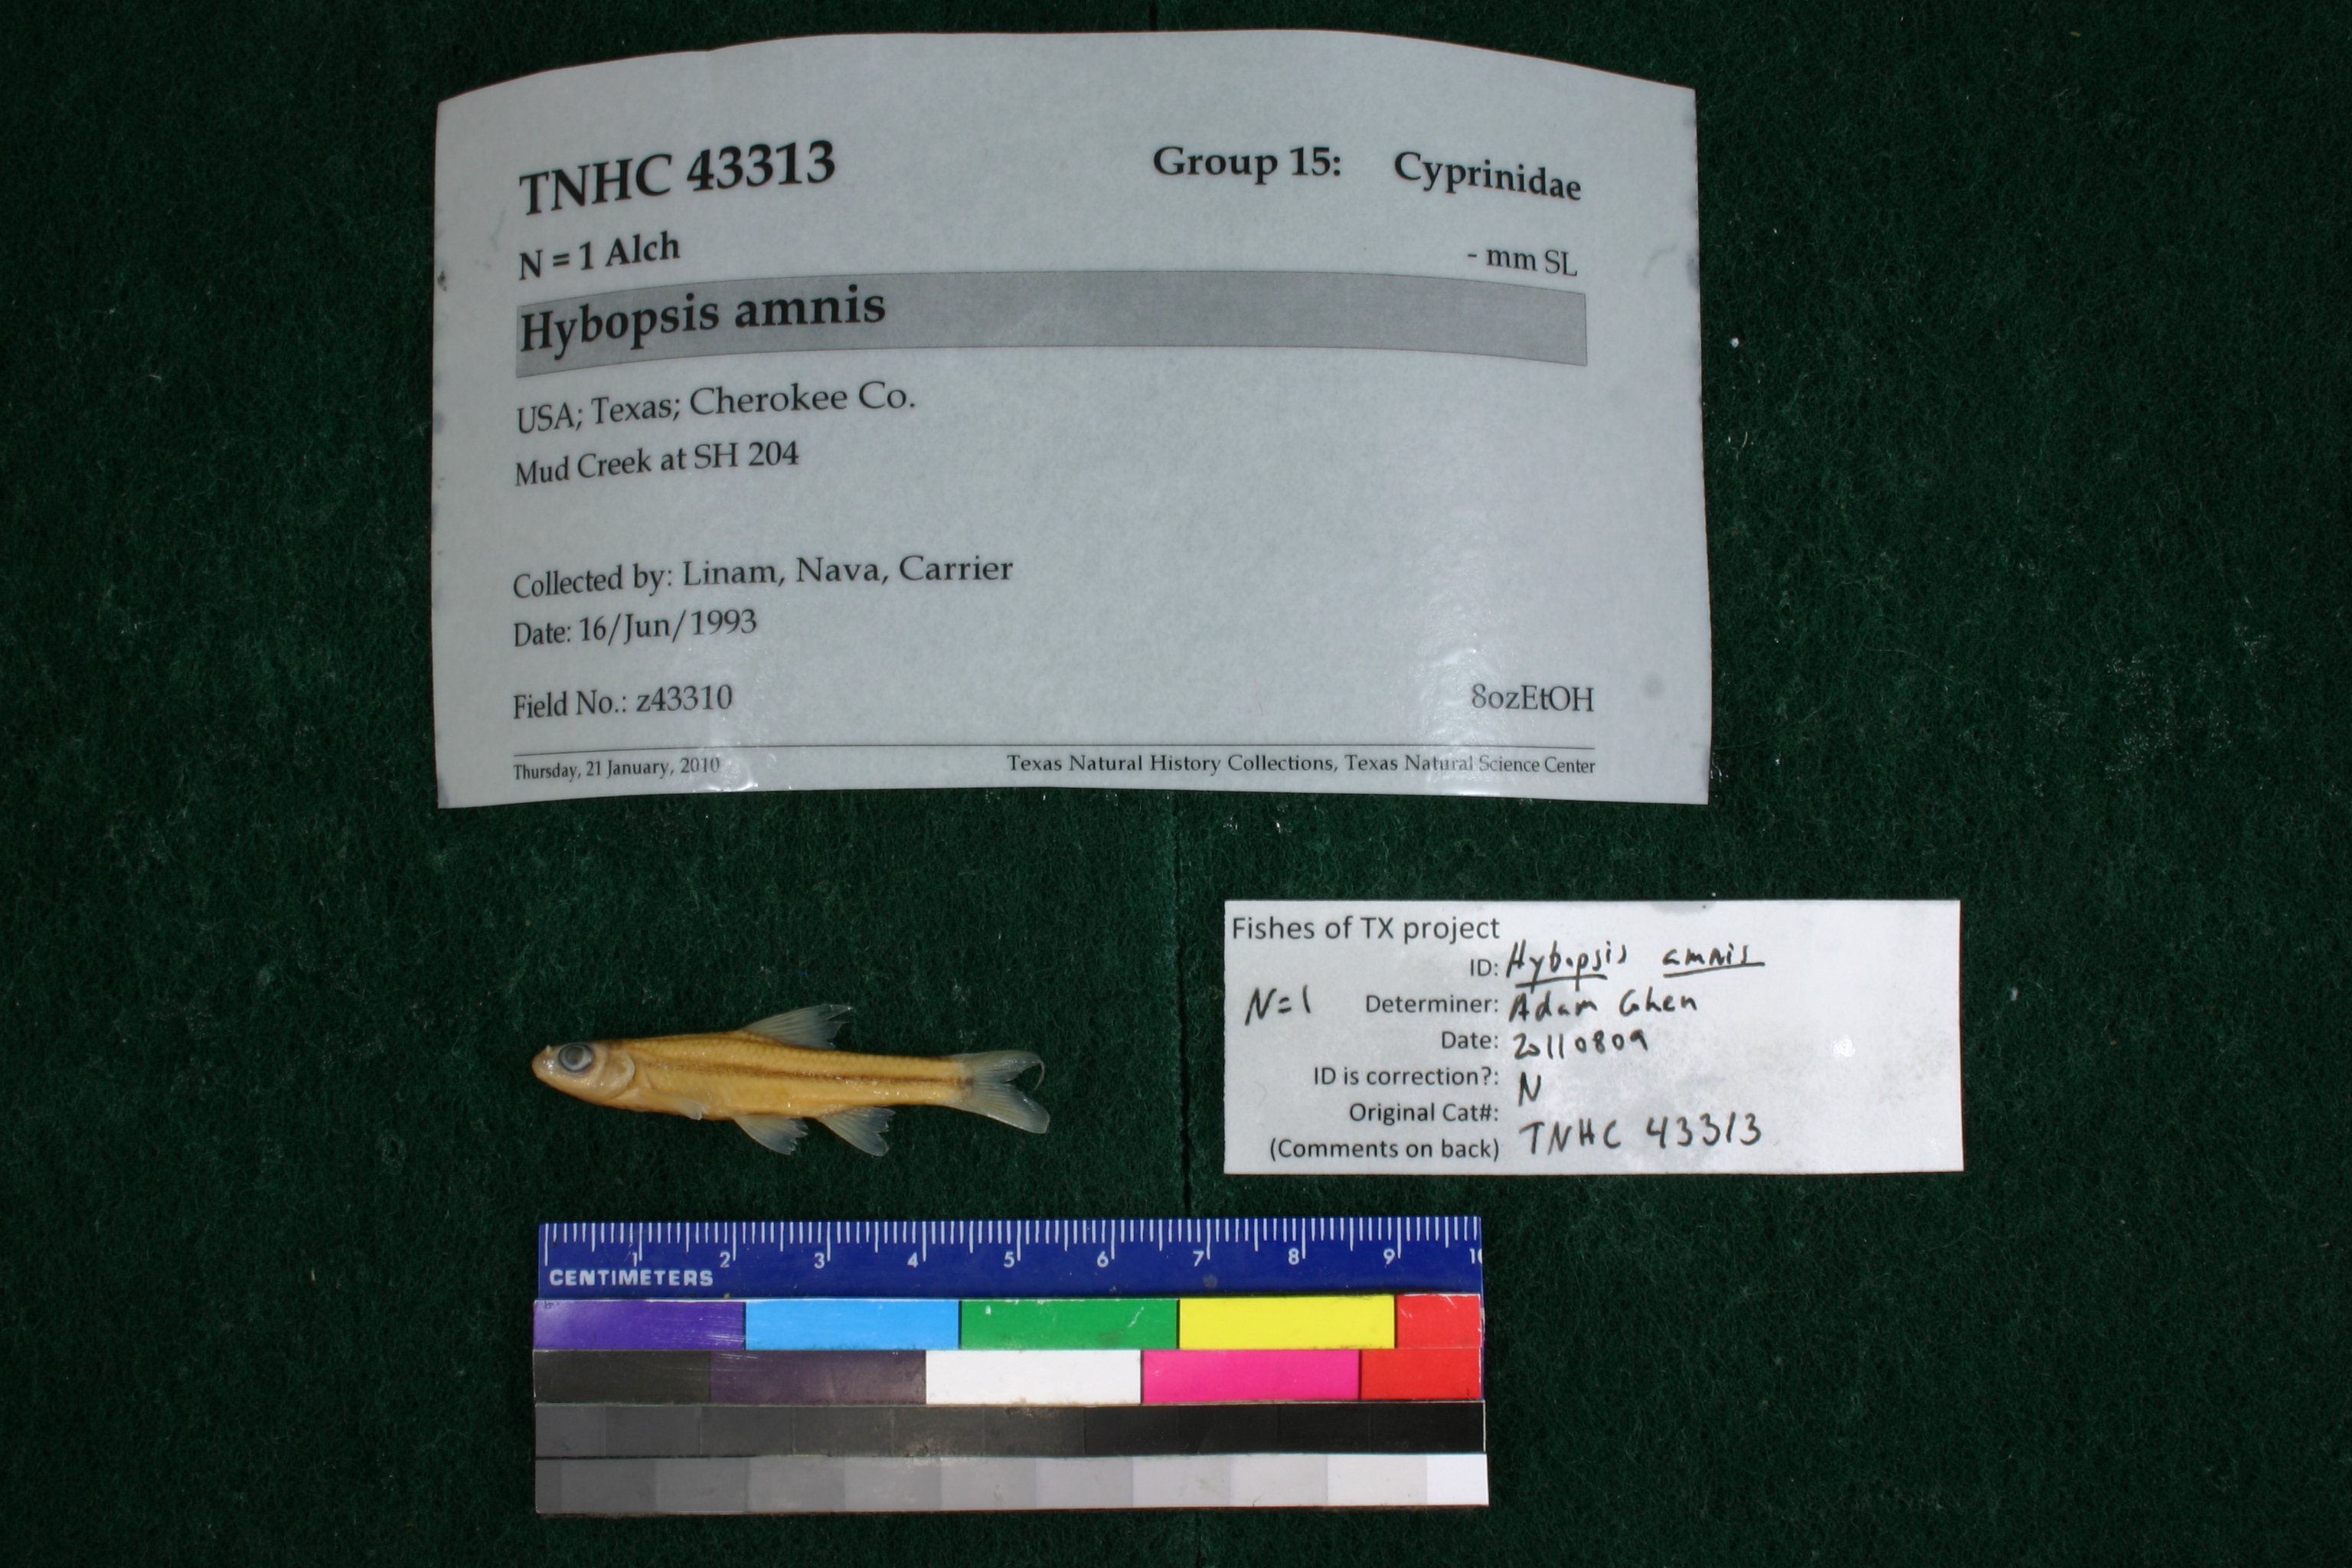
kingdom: Animalia
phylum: Chordata
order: Cypriniformes
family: Cyprinidae
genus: Hybopsis
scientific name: Hybopsis amnis
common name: Pallid shiner
